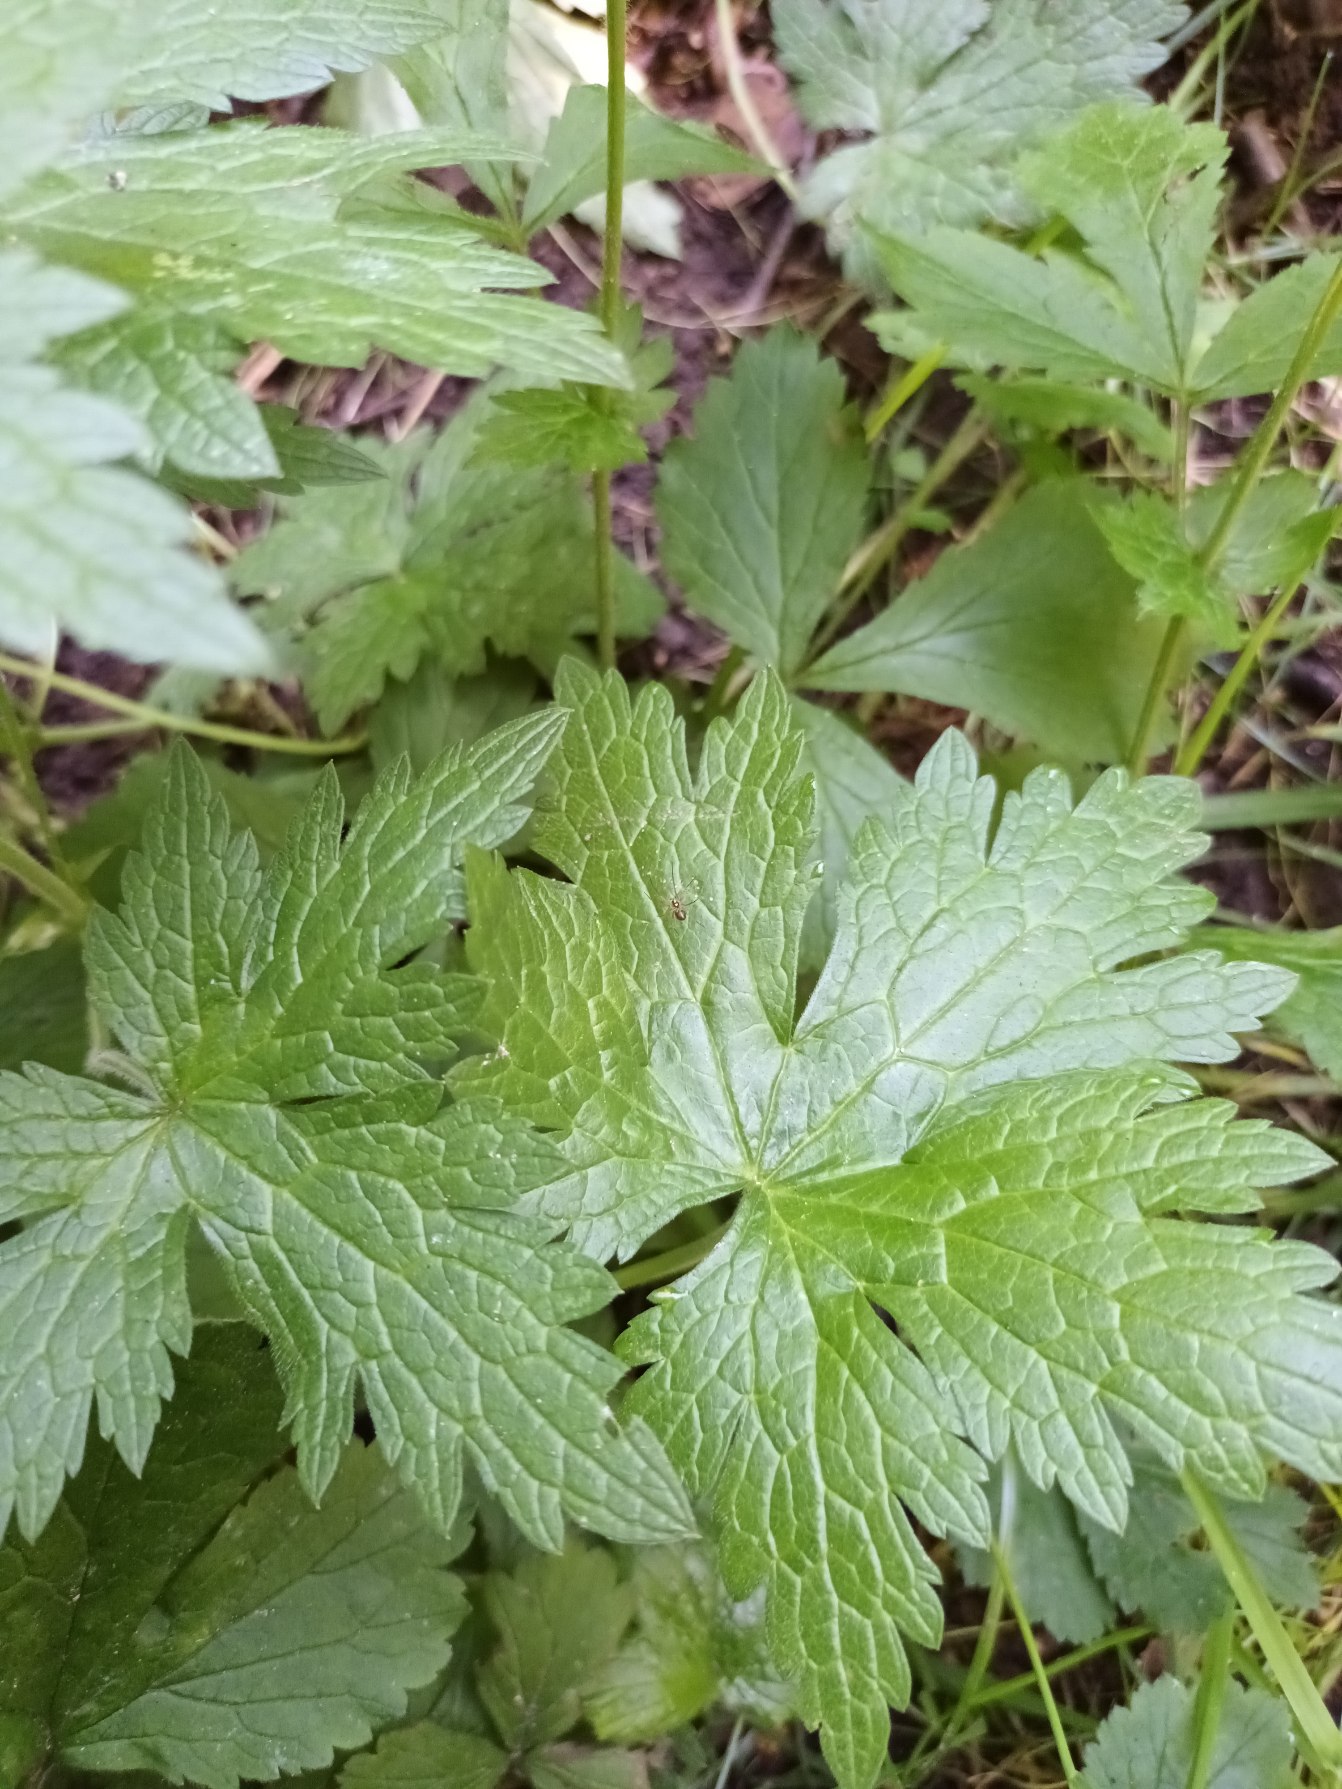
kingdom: Plantae
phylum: Tracheophyta
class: Magnoliopsida
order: Geraniales
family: Geraniaceae
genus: Geranium
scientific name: Geranium endressii
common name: Spansk storkenæb
